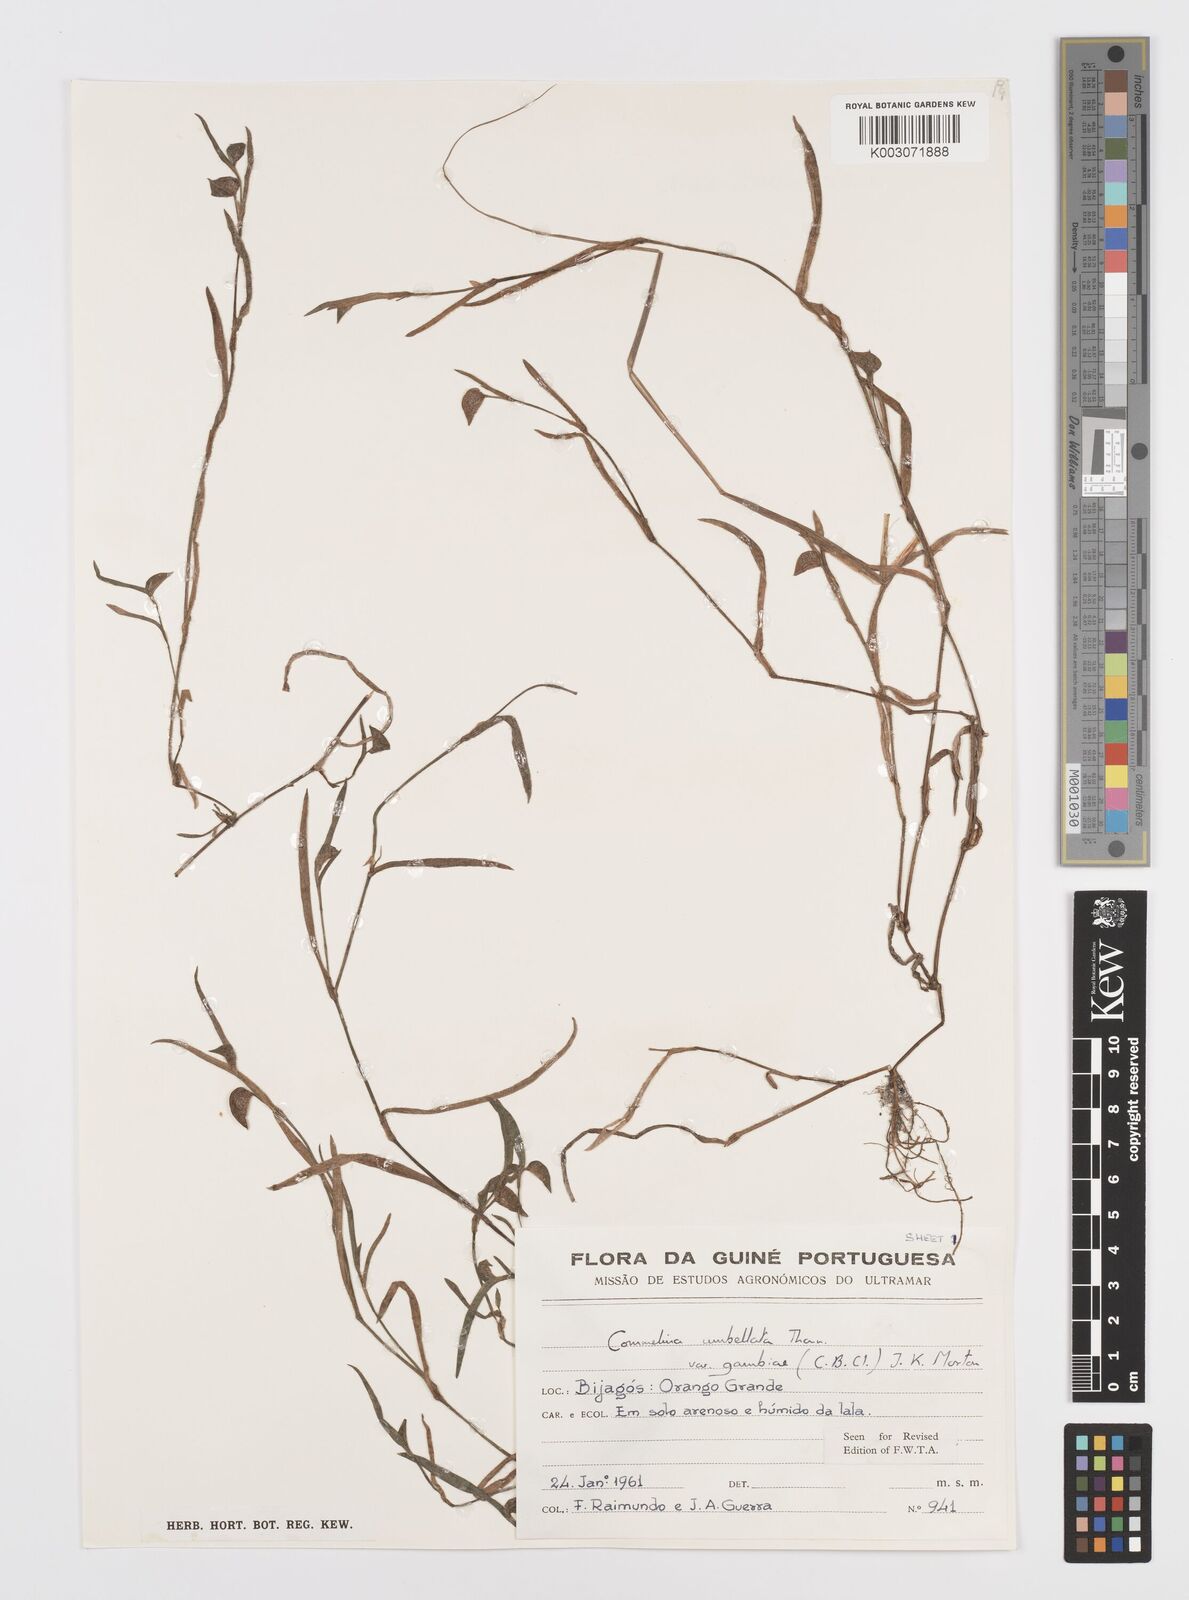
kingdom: Plantae
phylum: Tracheophyta
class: Liliopsida
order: Commelinales
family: Commelinaceae
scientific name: Commelinaceae
